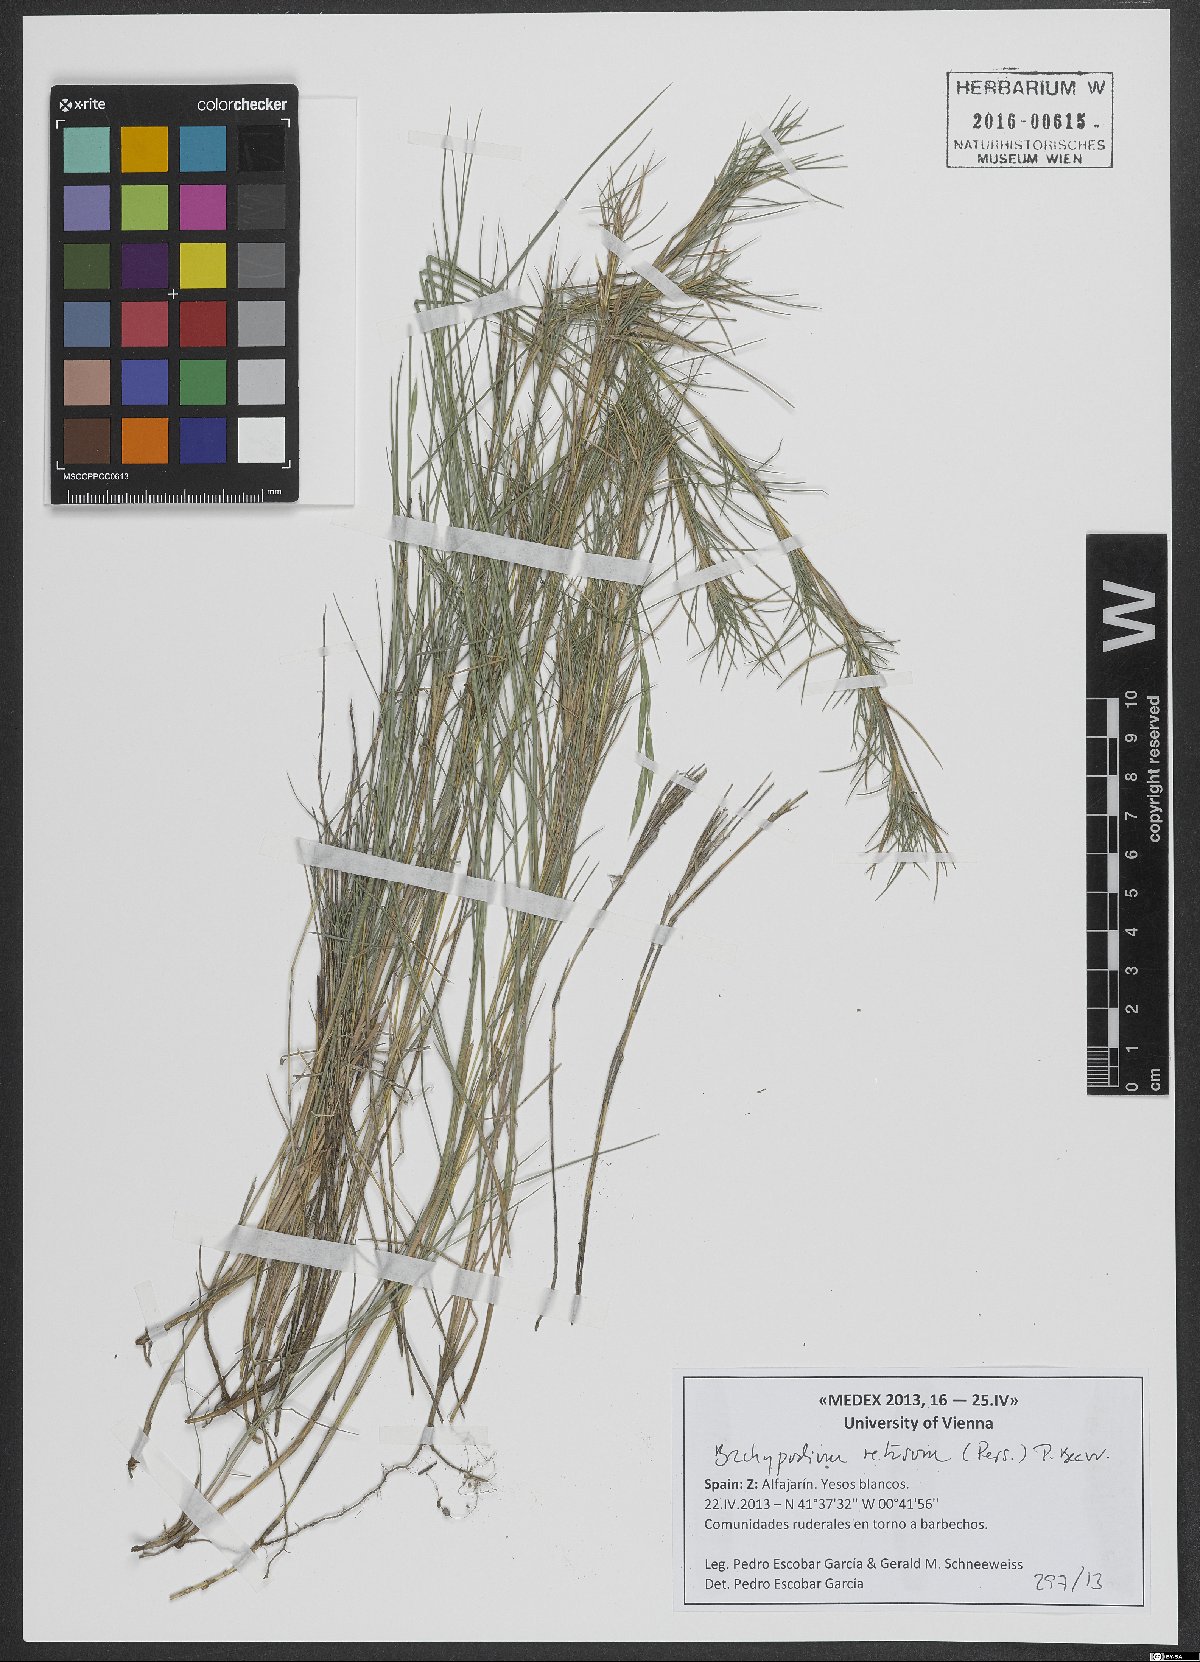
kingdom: Plantae
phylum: Tracheophyta
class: Liliopsida
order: Poales
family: Poaceae
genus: Brachypodium
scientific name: Brachypodium retusum
